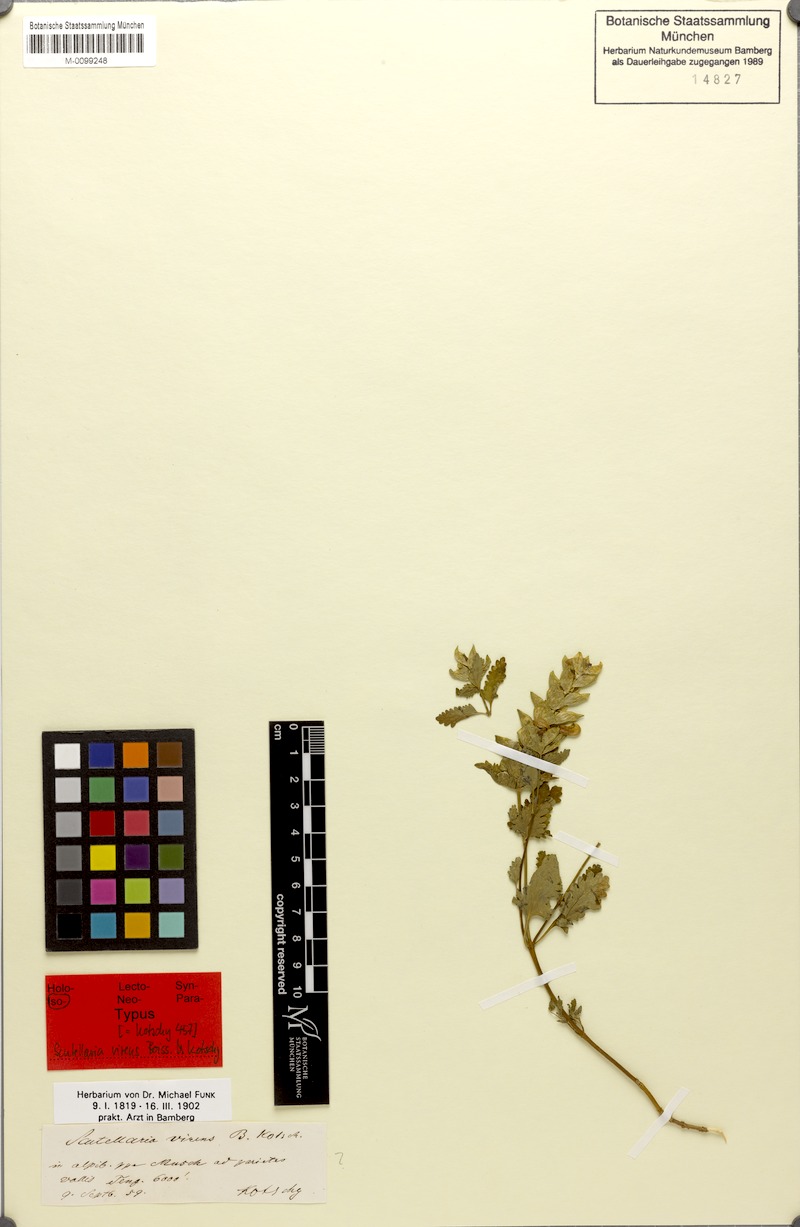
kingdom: Plantae
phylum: Tracheophyta
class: Magnoliopsida
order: Lamiales
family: Lamiaceae
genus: Scutellaria
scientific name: Scutellaria orientalis
